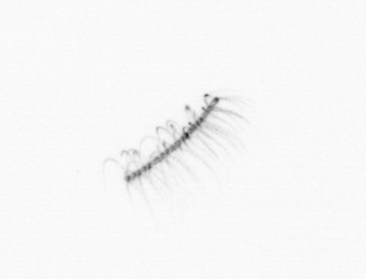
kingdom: Chromista
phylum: Ochrophyta
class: Bacillariophyceae
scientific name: Bacillariophyceae
